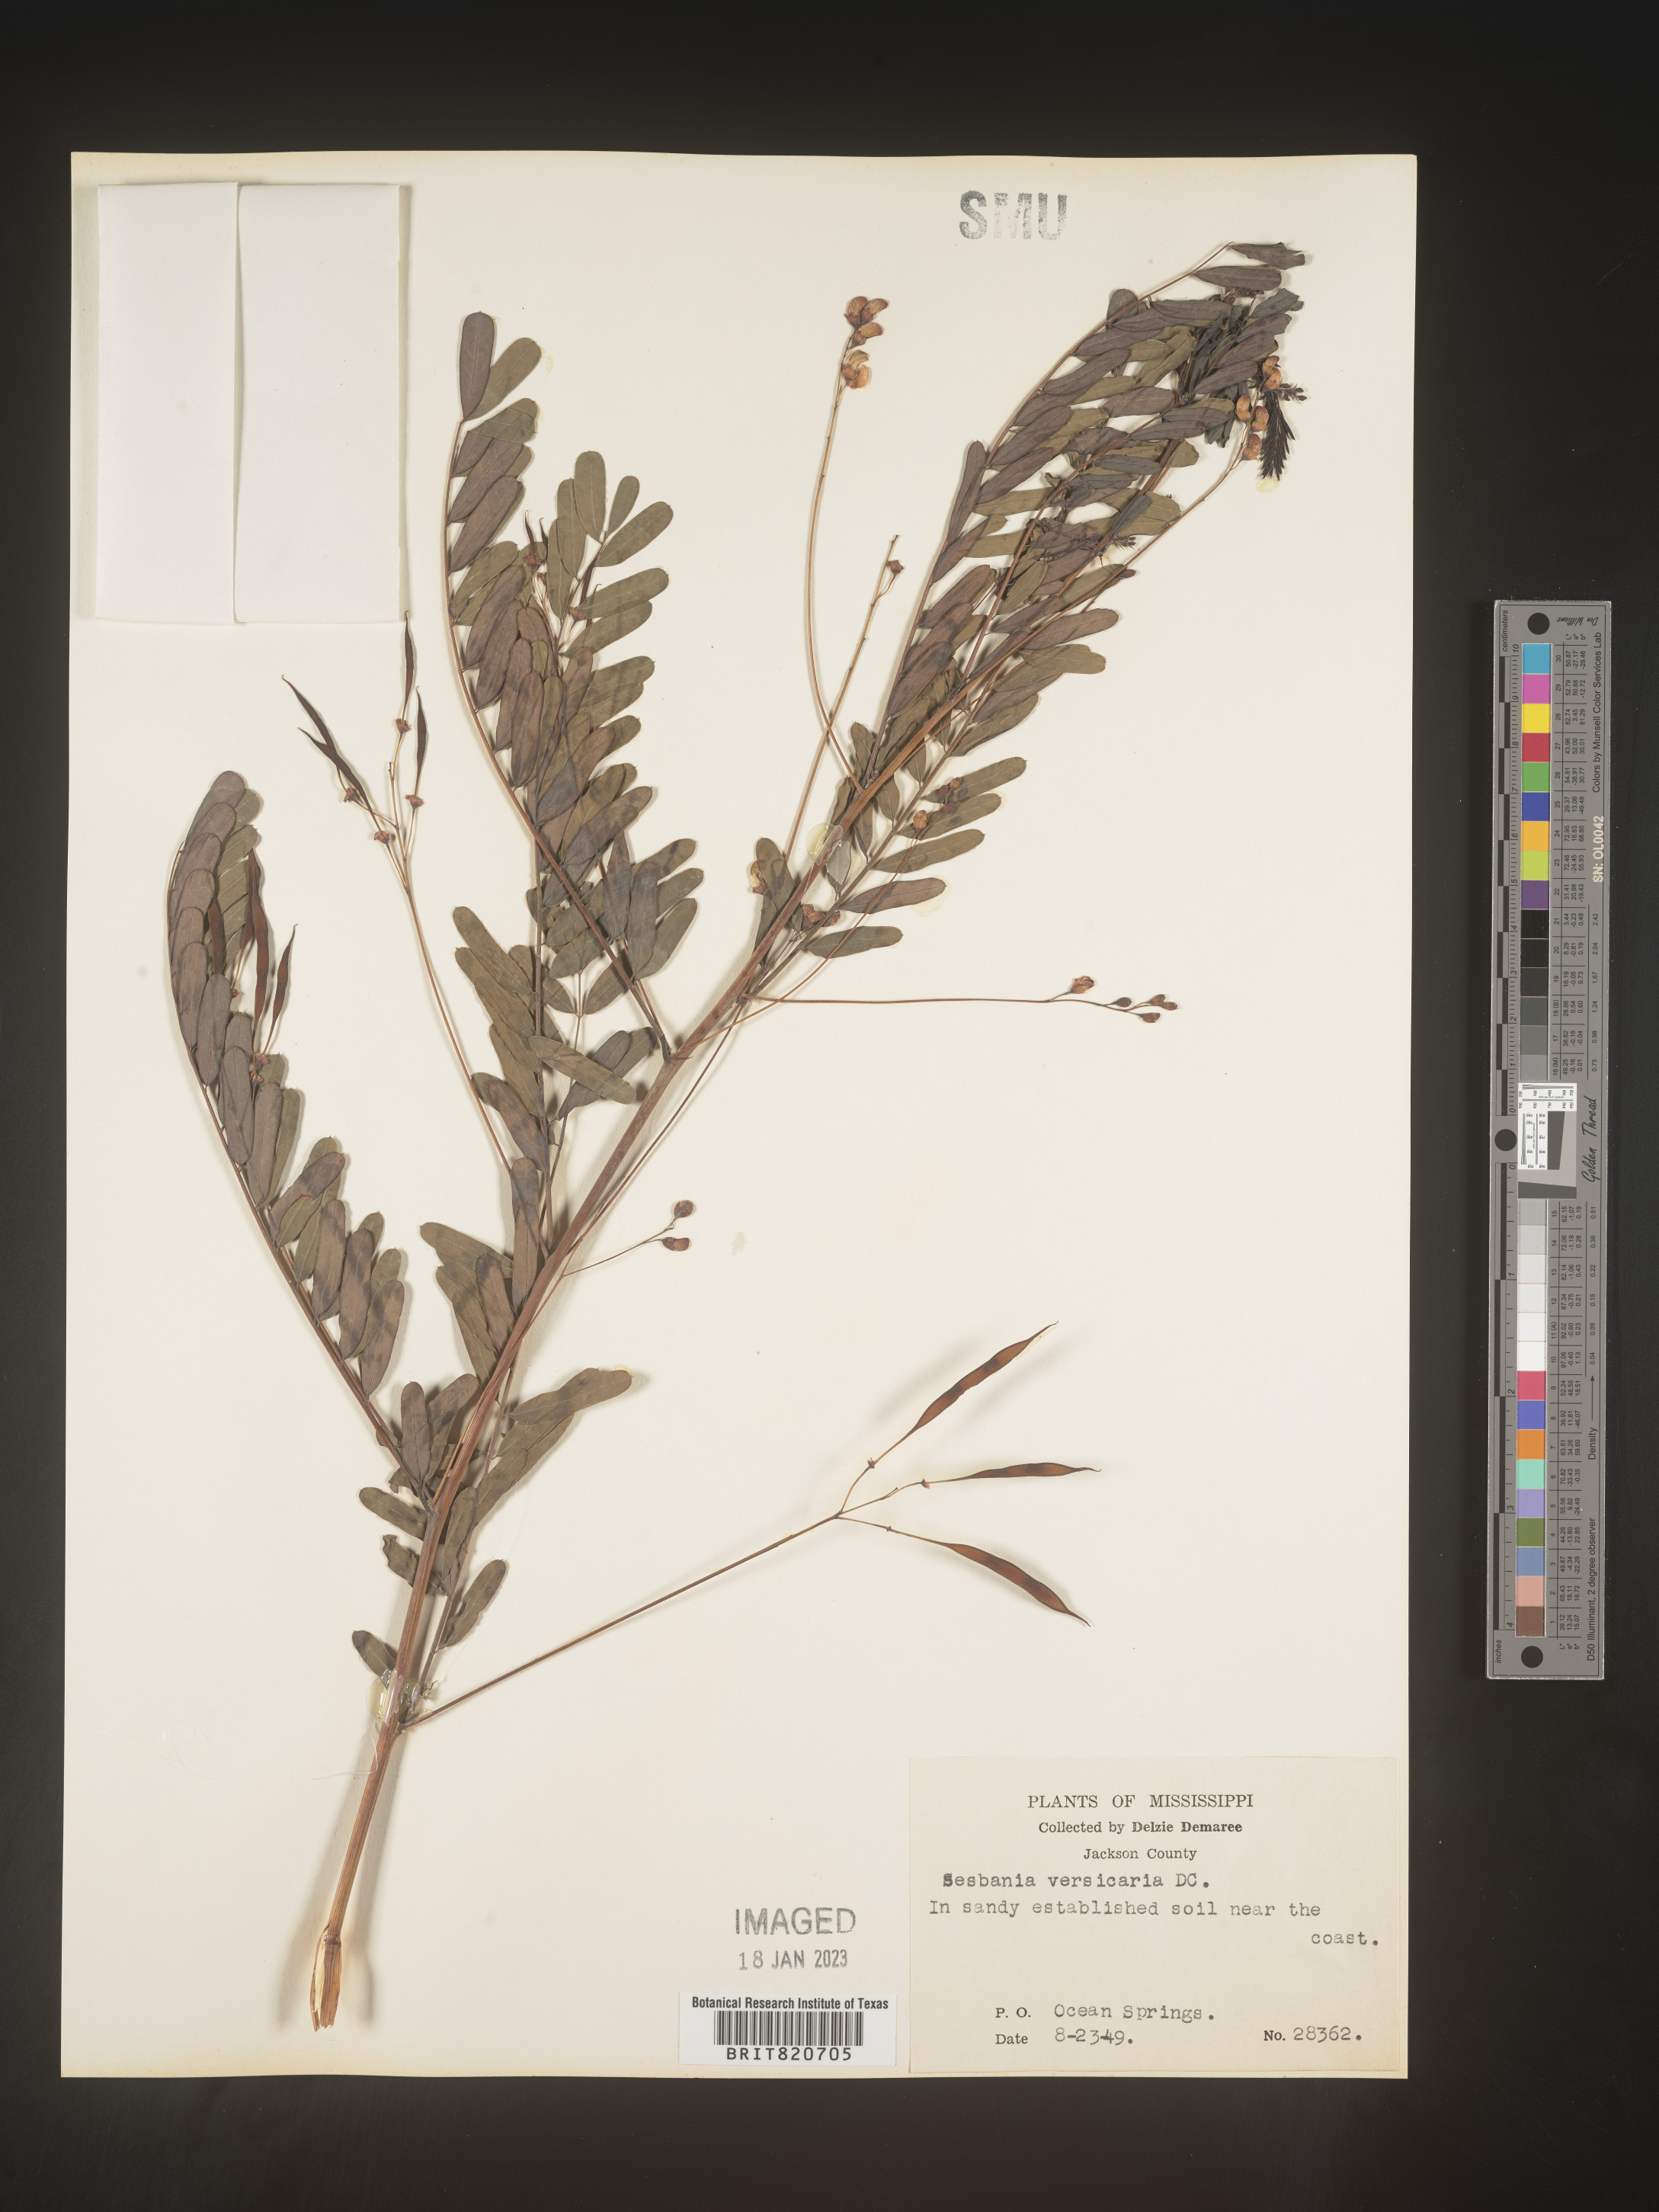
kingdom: Plantae
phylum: Tracheophyta
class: Magnoliopsida
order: Fabales
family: Fabaceae
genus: Sesbania
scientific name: Sesbania vesicaria
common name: Bagpod
